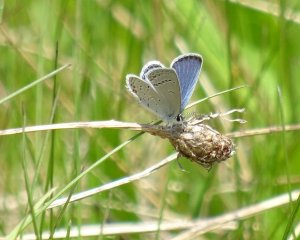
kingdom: Animalia
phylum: Arthropoda
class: Insecta
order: Lepidoptera
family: Lycaenidae
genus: Elkalyce
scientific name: Elkalyce comyntas
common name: Eastern Tailed-Blue
